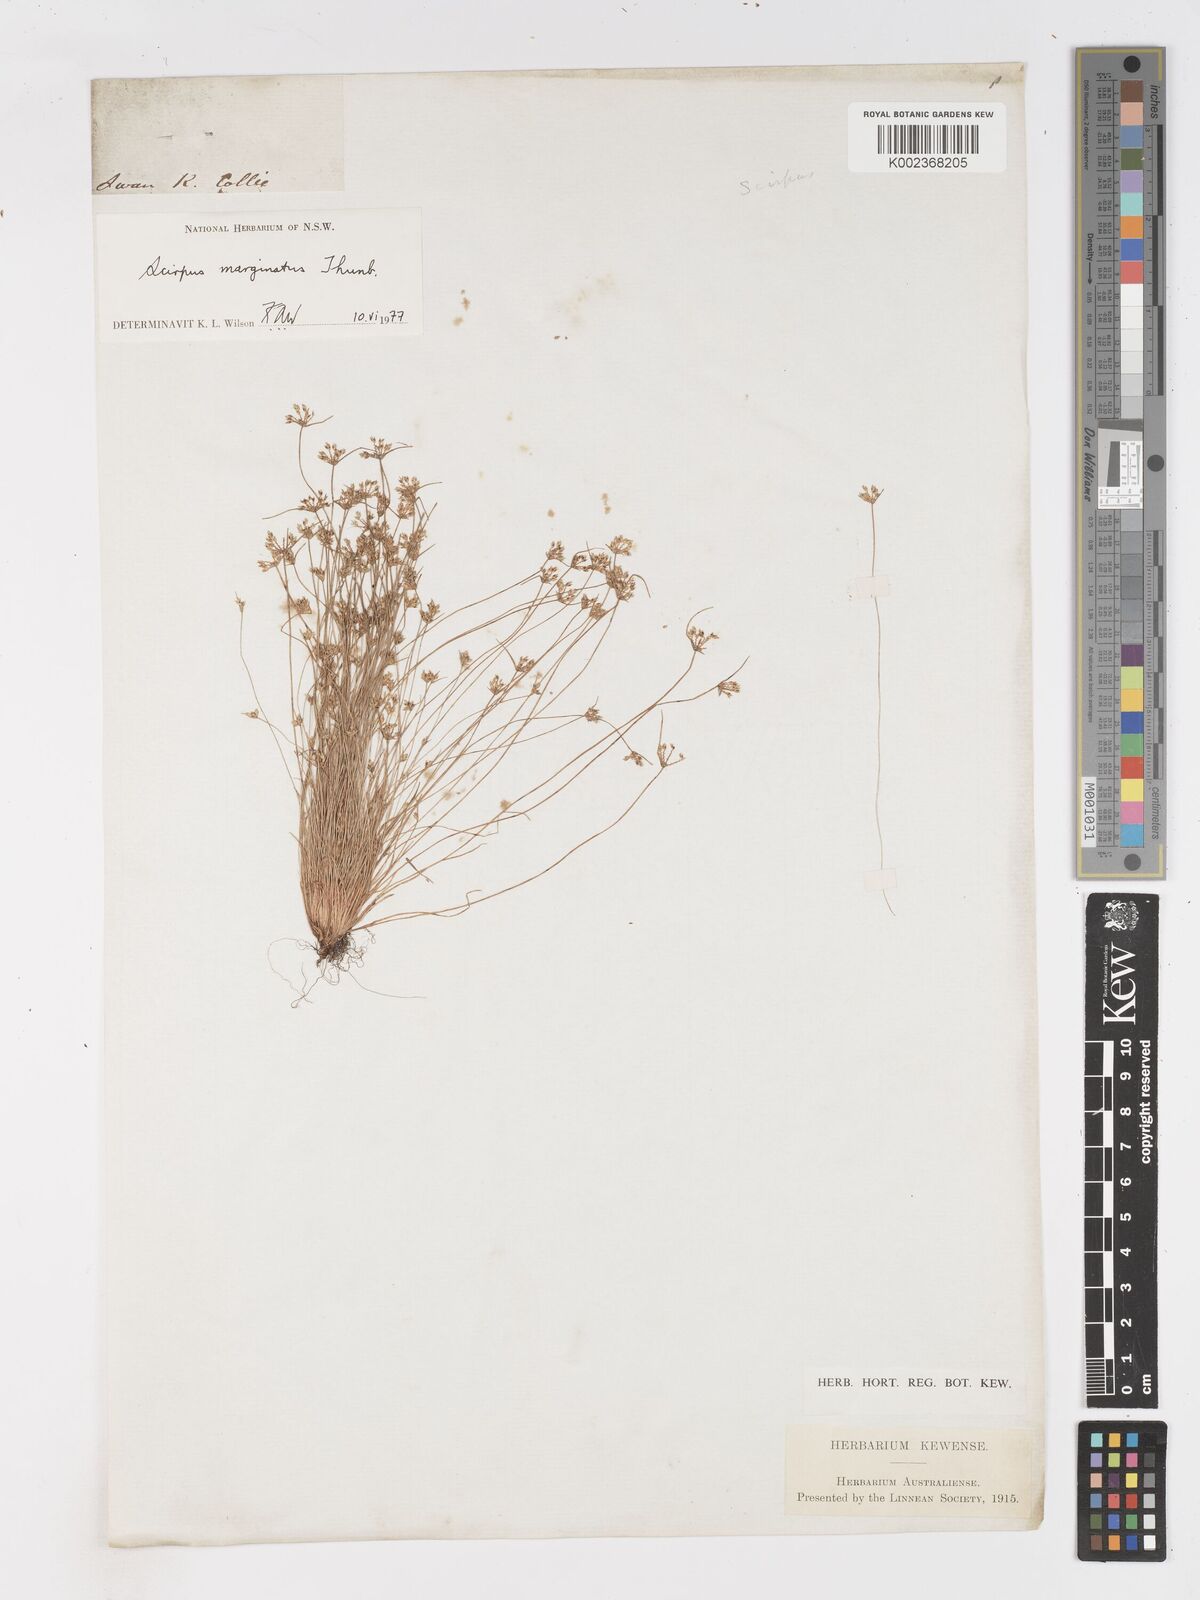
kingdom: Plantae
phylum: Tracheophyta
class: Liliopsida
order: Poales
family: Cyperaceae
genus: Isolepis
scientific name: Isolepis marginata
